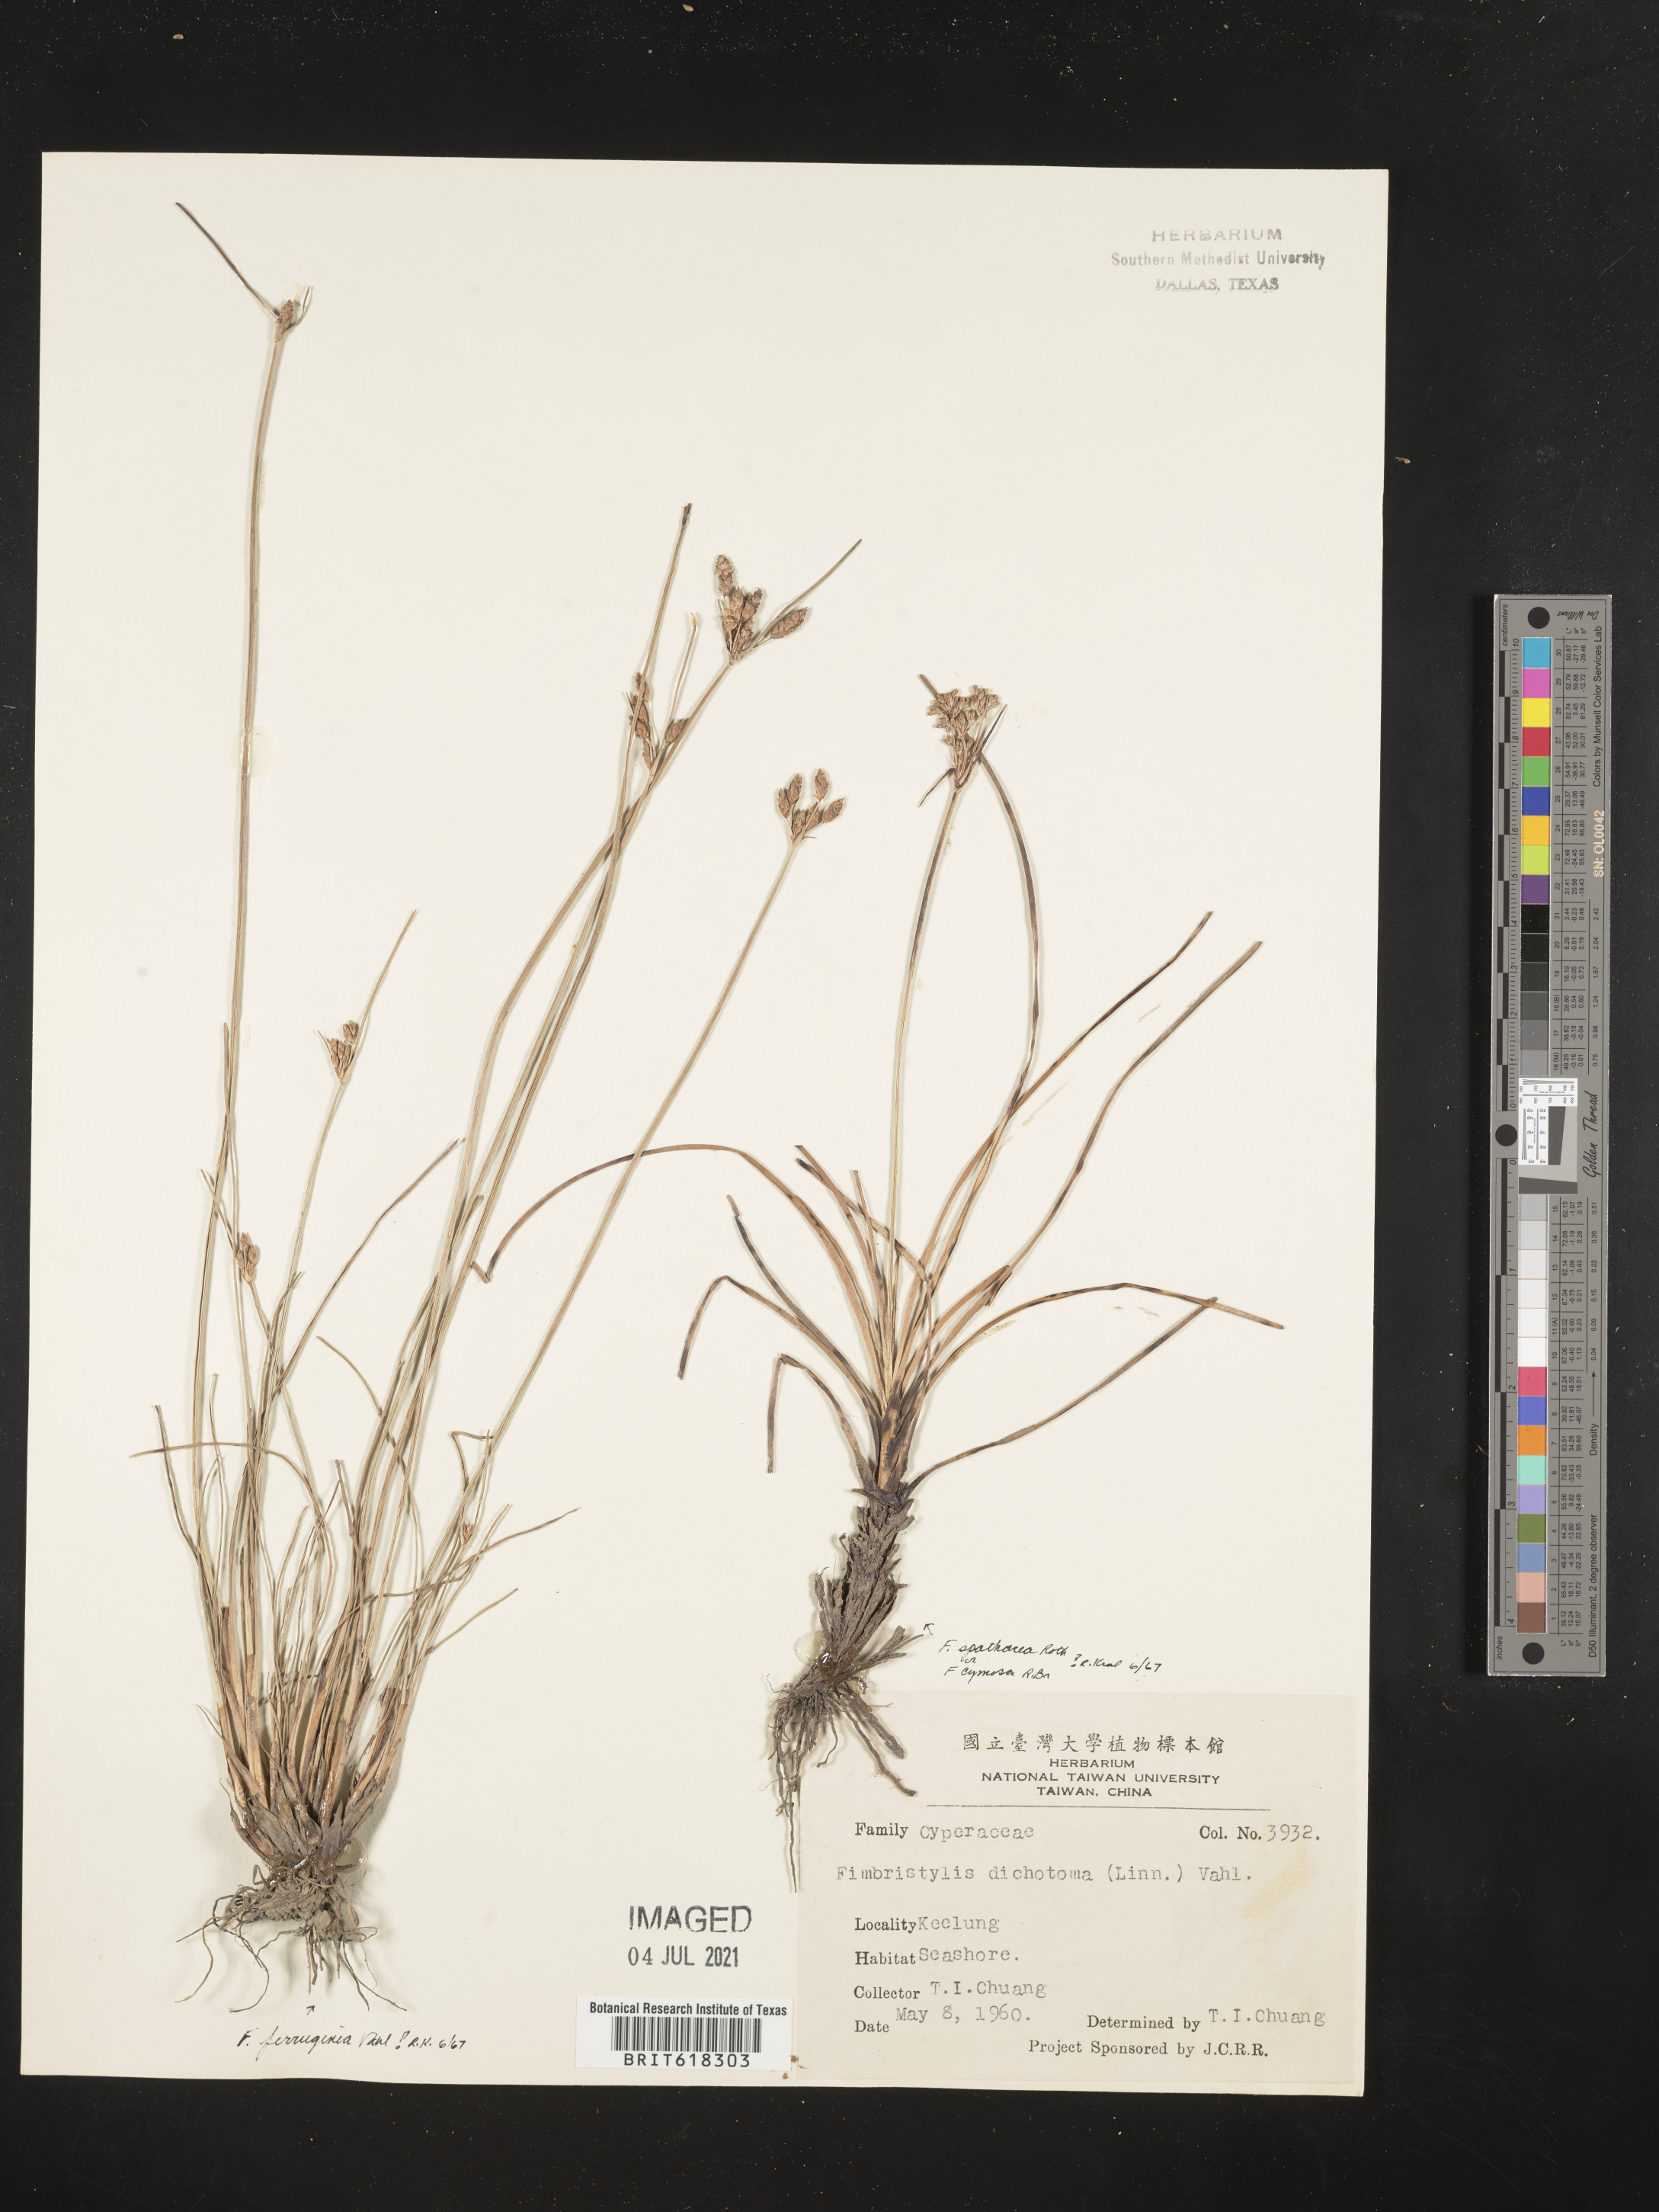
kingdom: Plantae
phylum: Tracheophyta
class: Liliopsida
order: Poales
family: Cyperaceae
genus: Fimbristylis
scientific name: Fimbristylis spadicea
